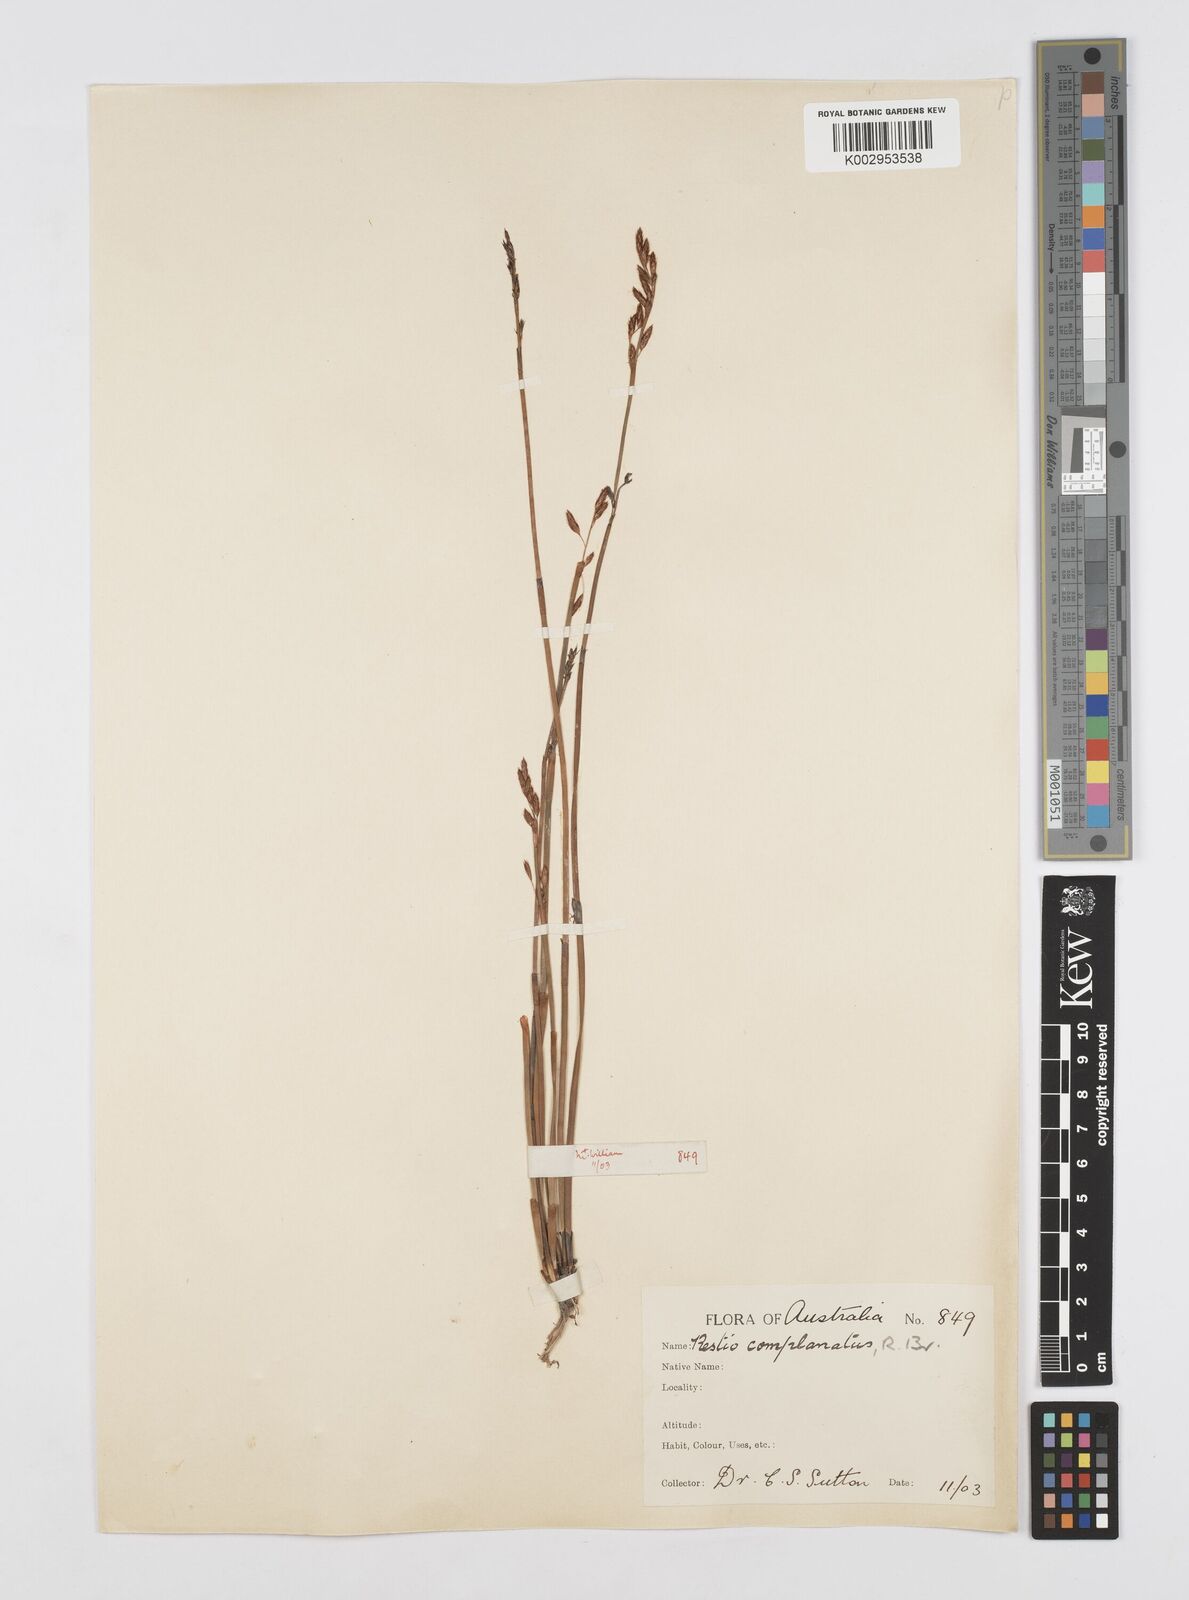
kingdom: Plantae
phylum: Tracheophyta
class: Liliopsida
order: Poales
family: Restionaceae
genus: Eurychorda
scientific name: Eurychorda complanata
